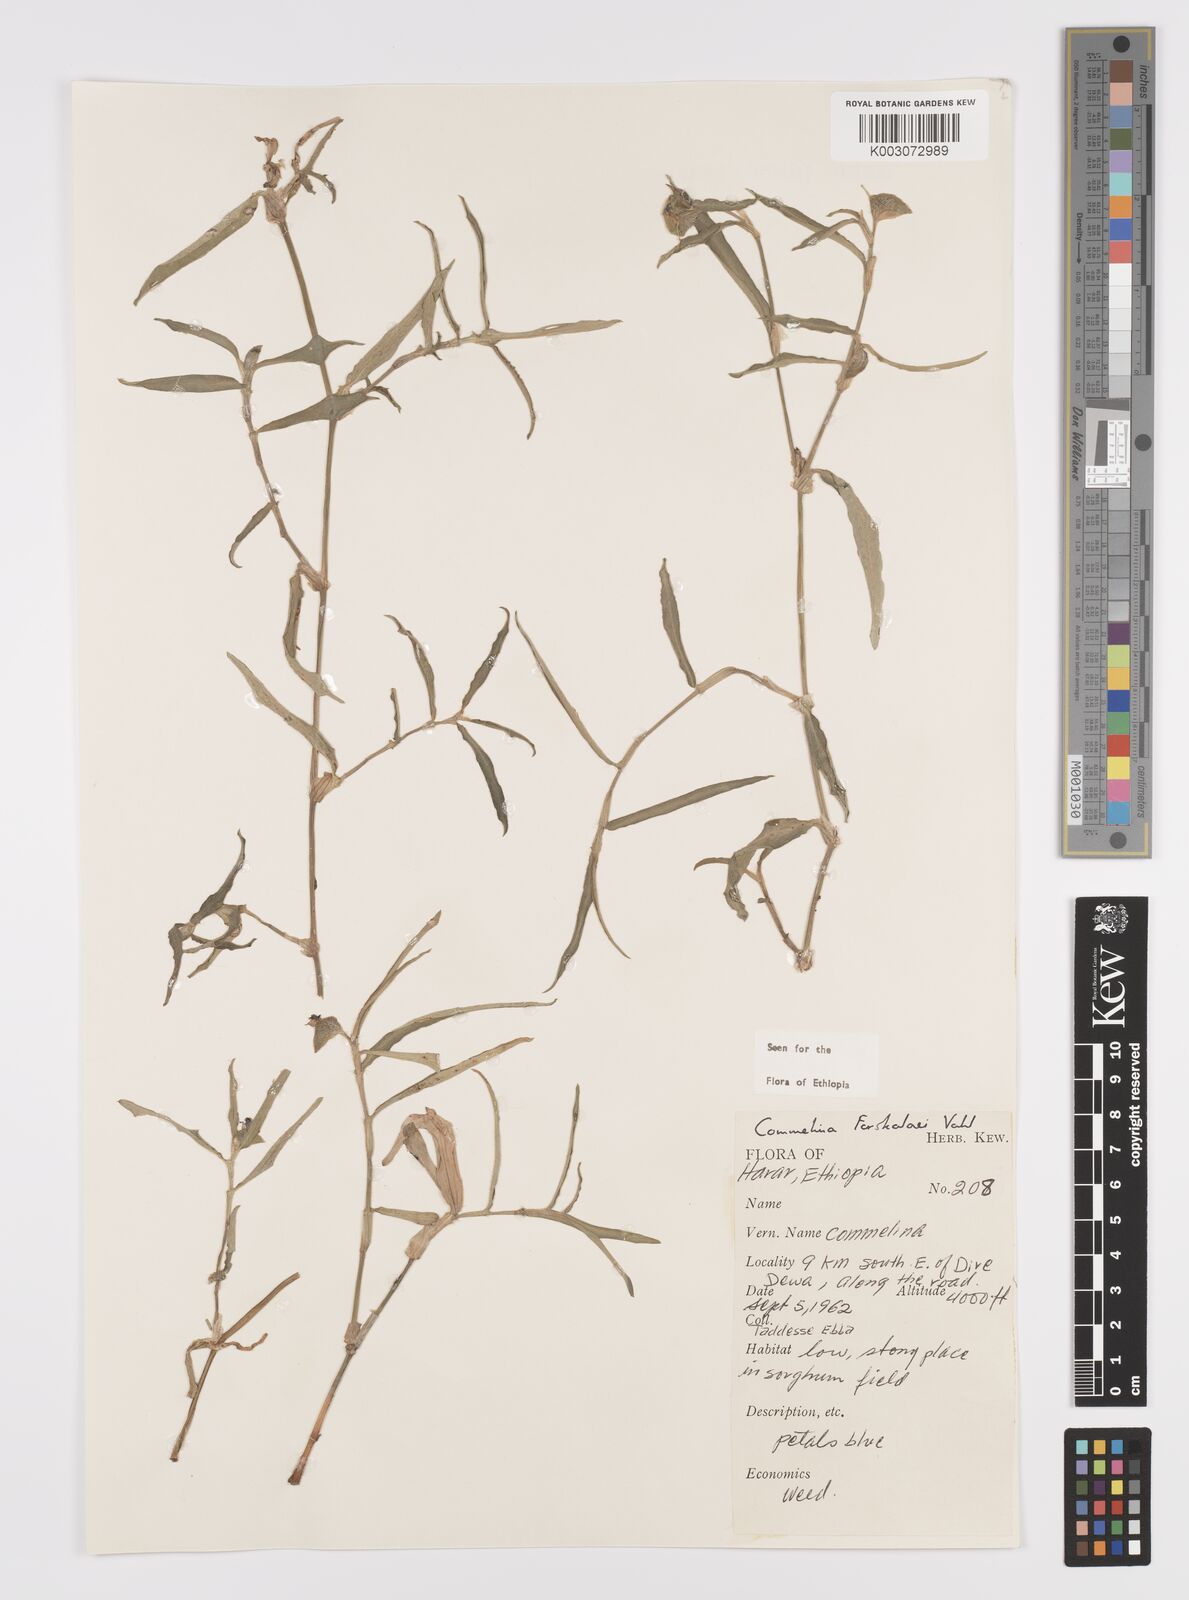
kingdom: Plantae
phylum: Tracheophyta
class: Liliopsida
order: Commelinales
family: Commelinaceae
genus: Commelina
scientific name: Commelina forskaolii
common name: Rat's ear
